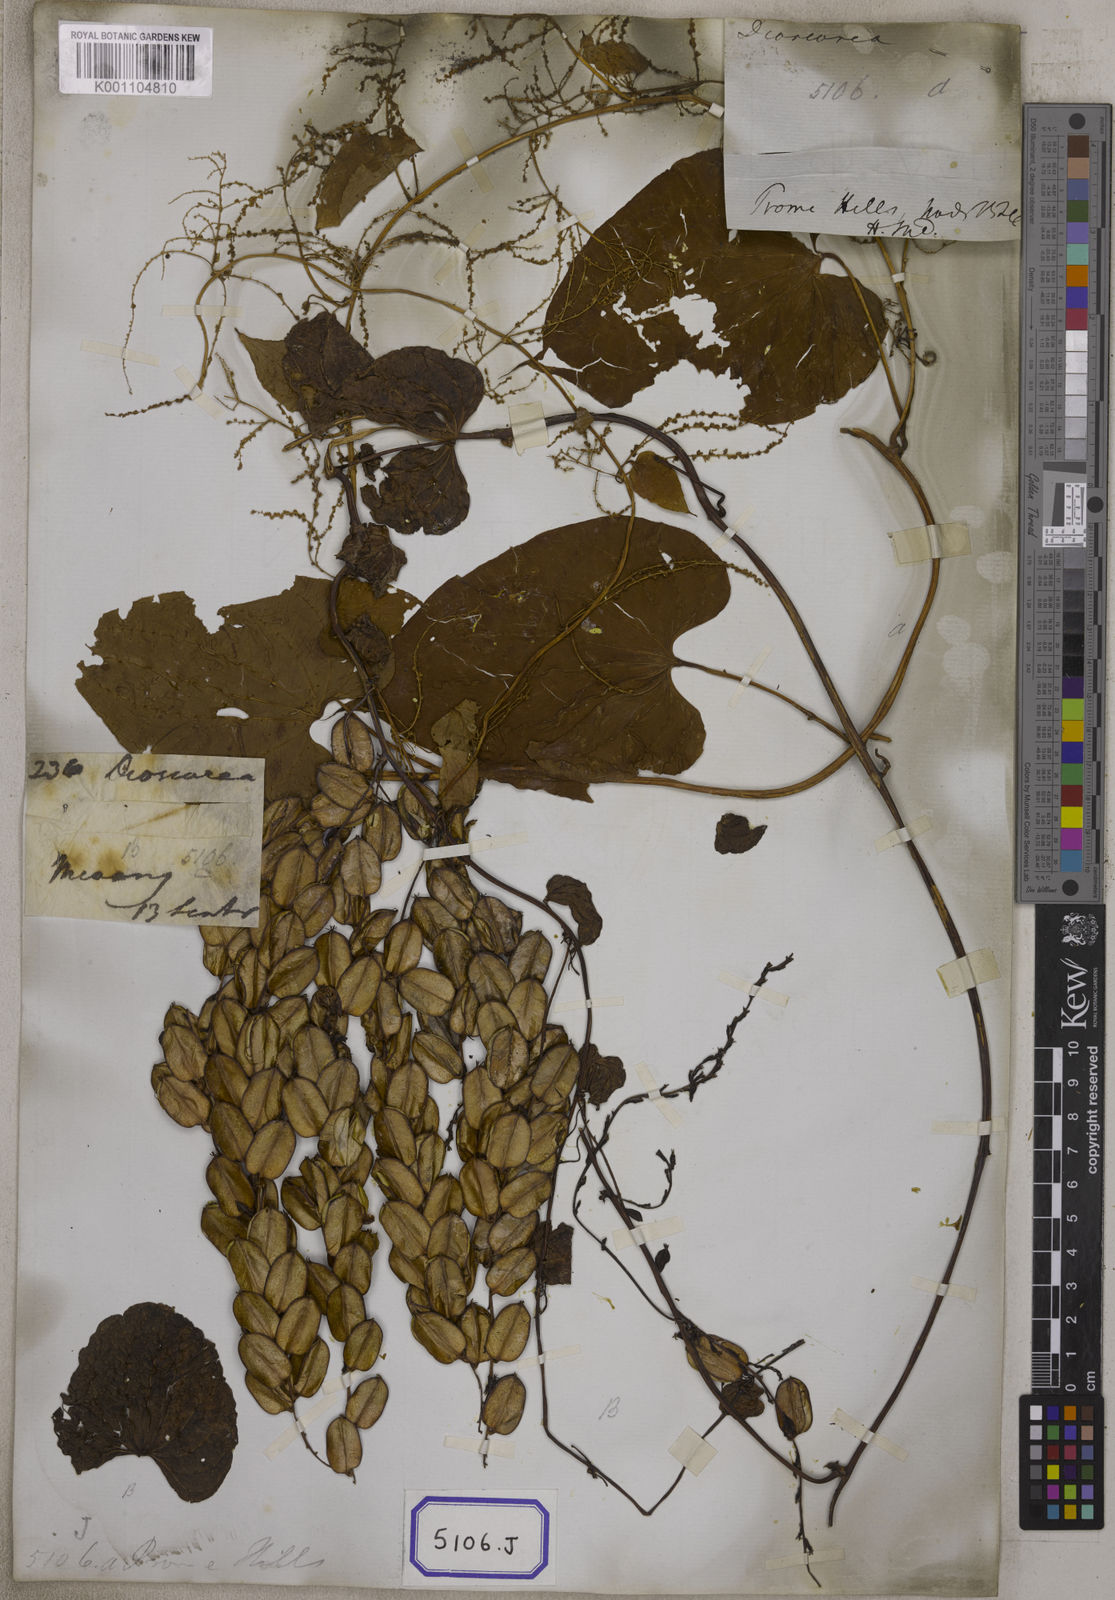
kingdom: Plantae
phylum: Tracheophyta
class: Liliopsida
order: Dioscoreales
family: Dioscoreaceae
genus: Dioscorea
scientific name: Dioscorea
